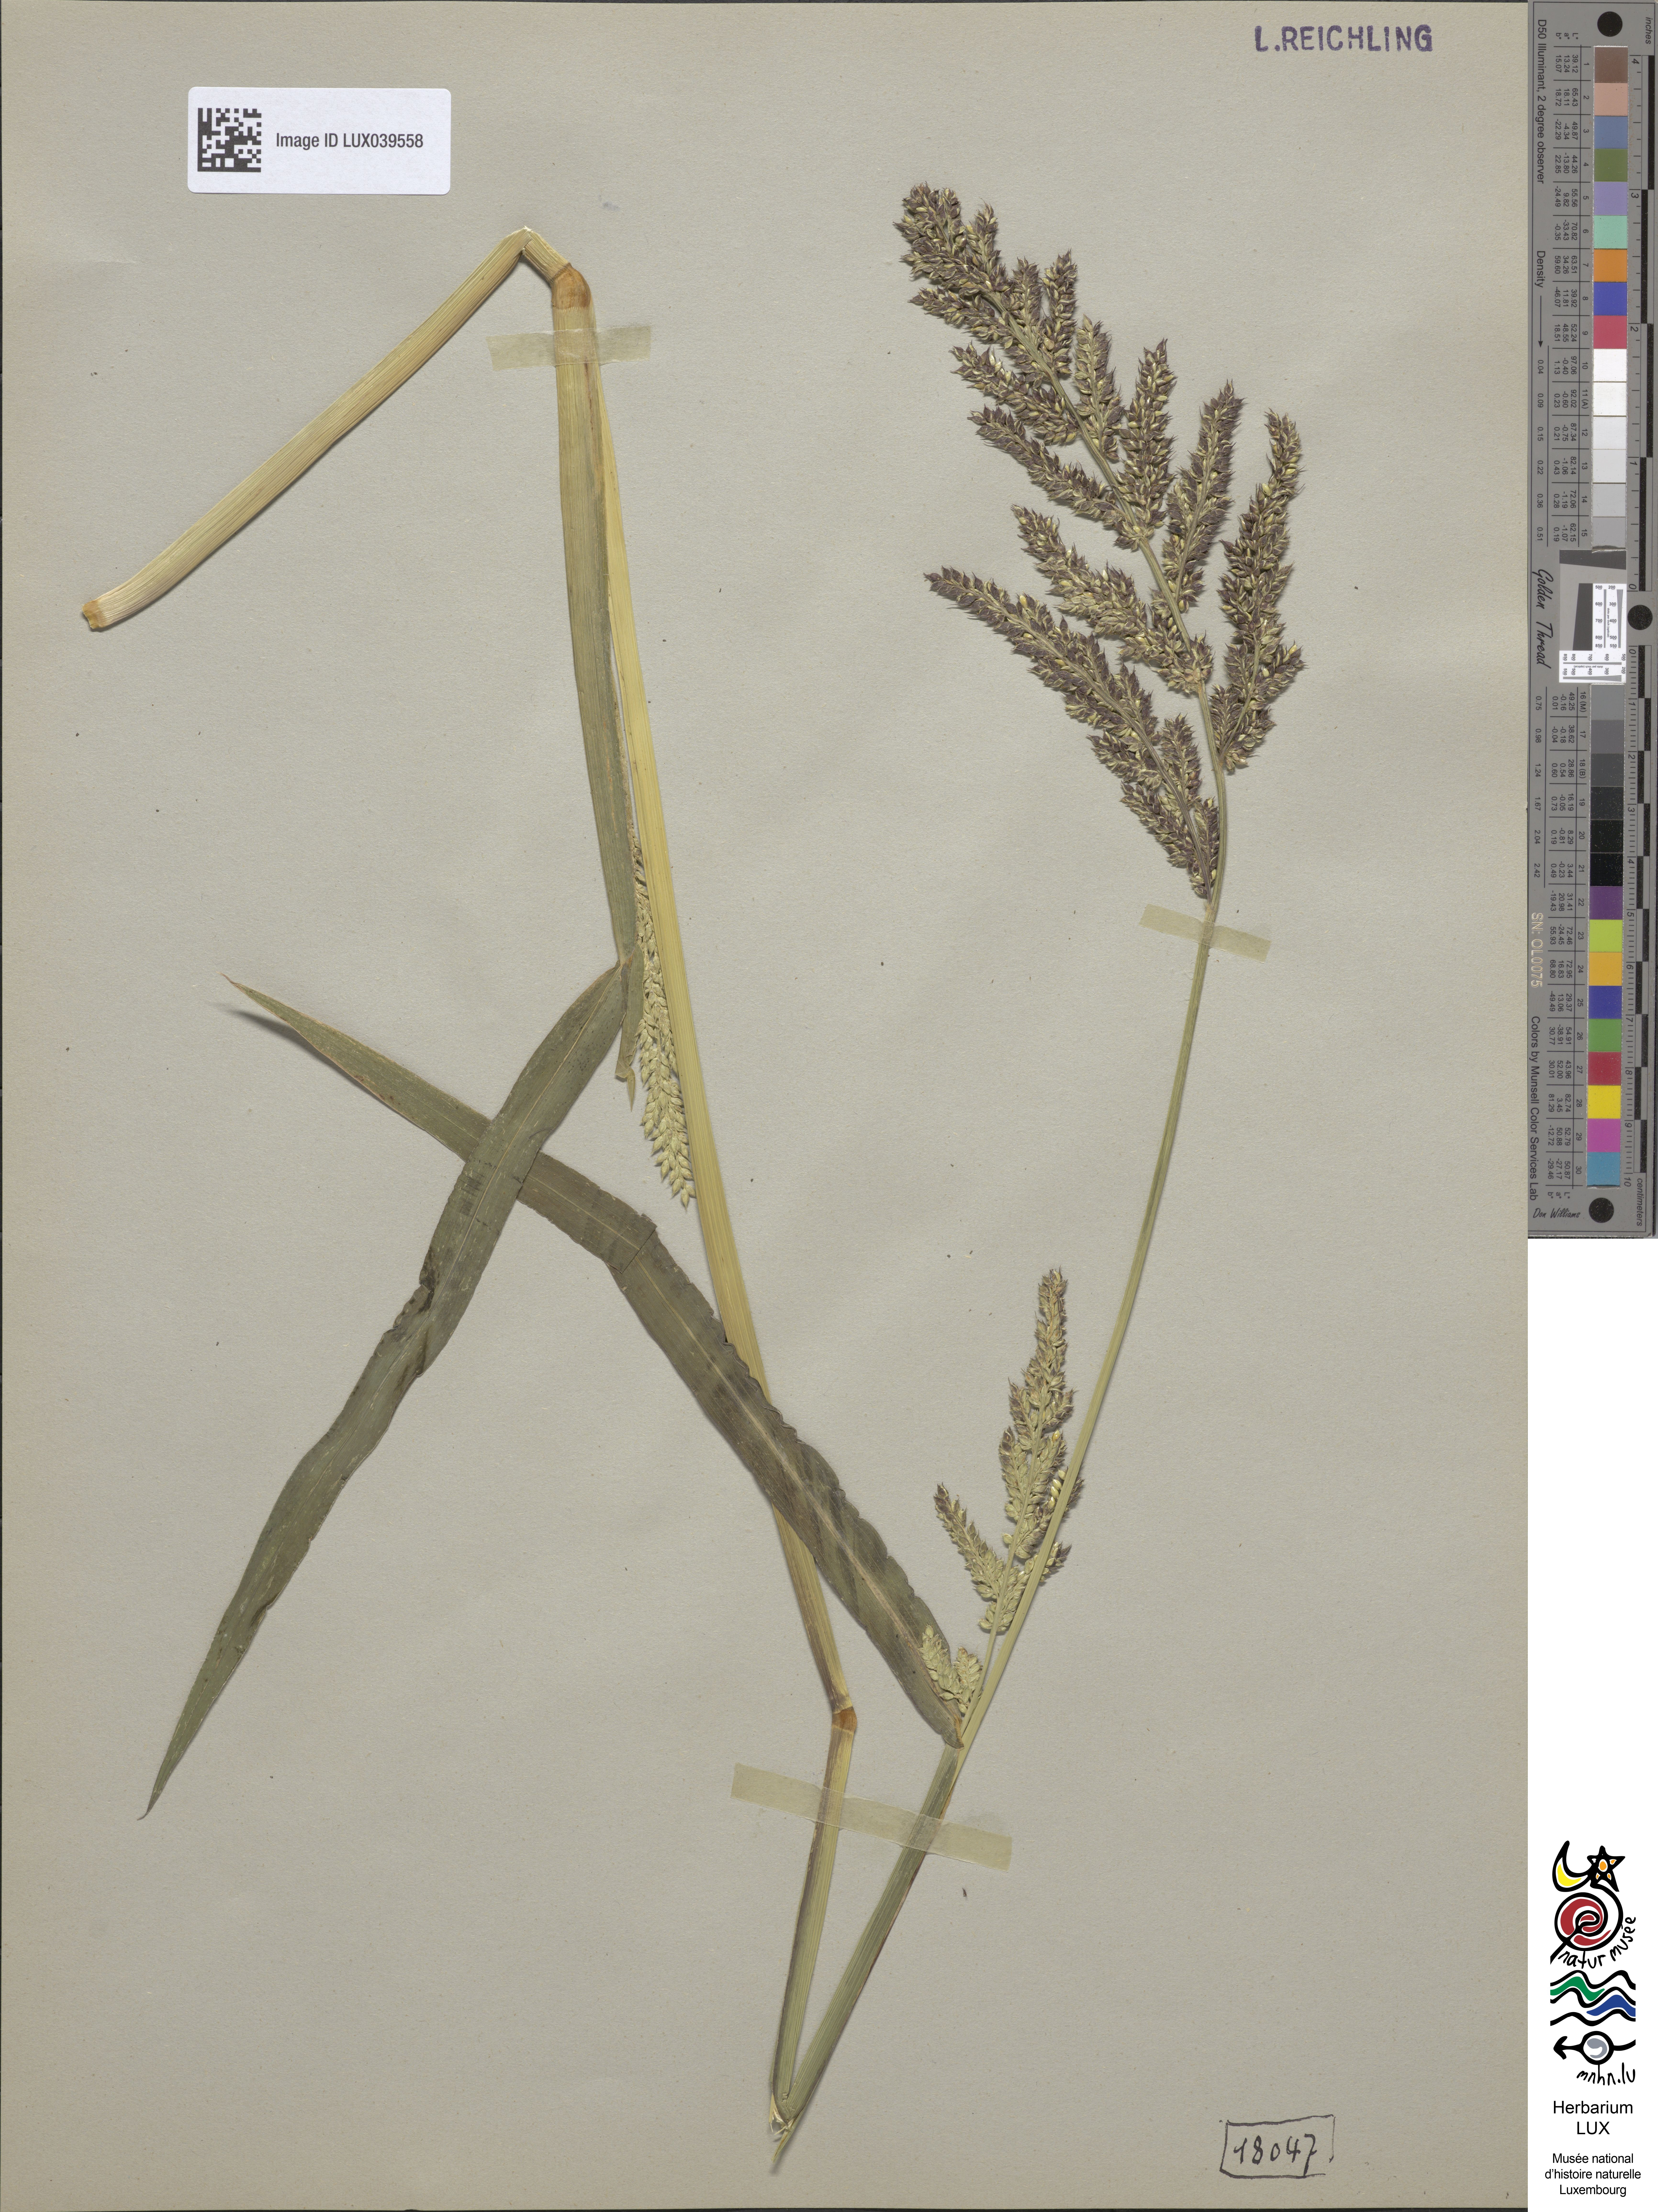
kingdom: Plantae
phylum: Tracheophyta
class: Liliopsida
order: Poales
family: Poaceae
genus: Echinochloa
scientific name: Echinochloa crus-galli
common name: Cockspur
